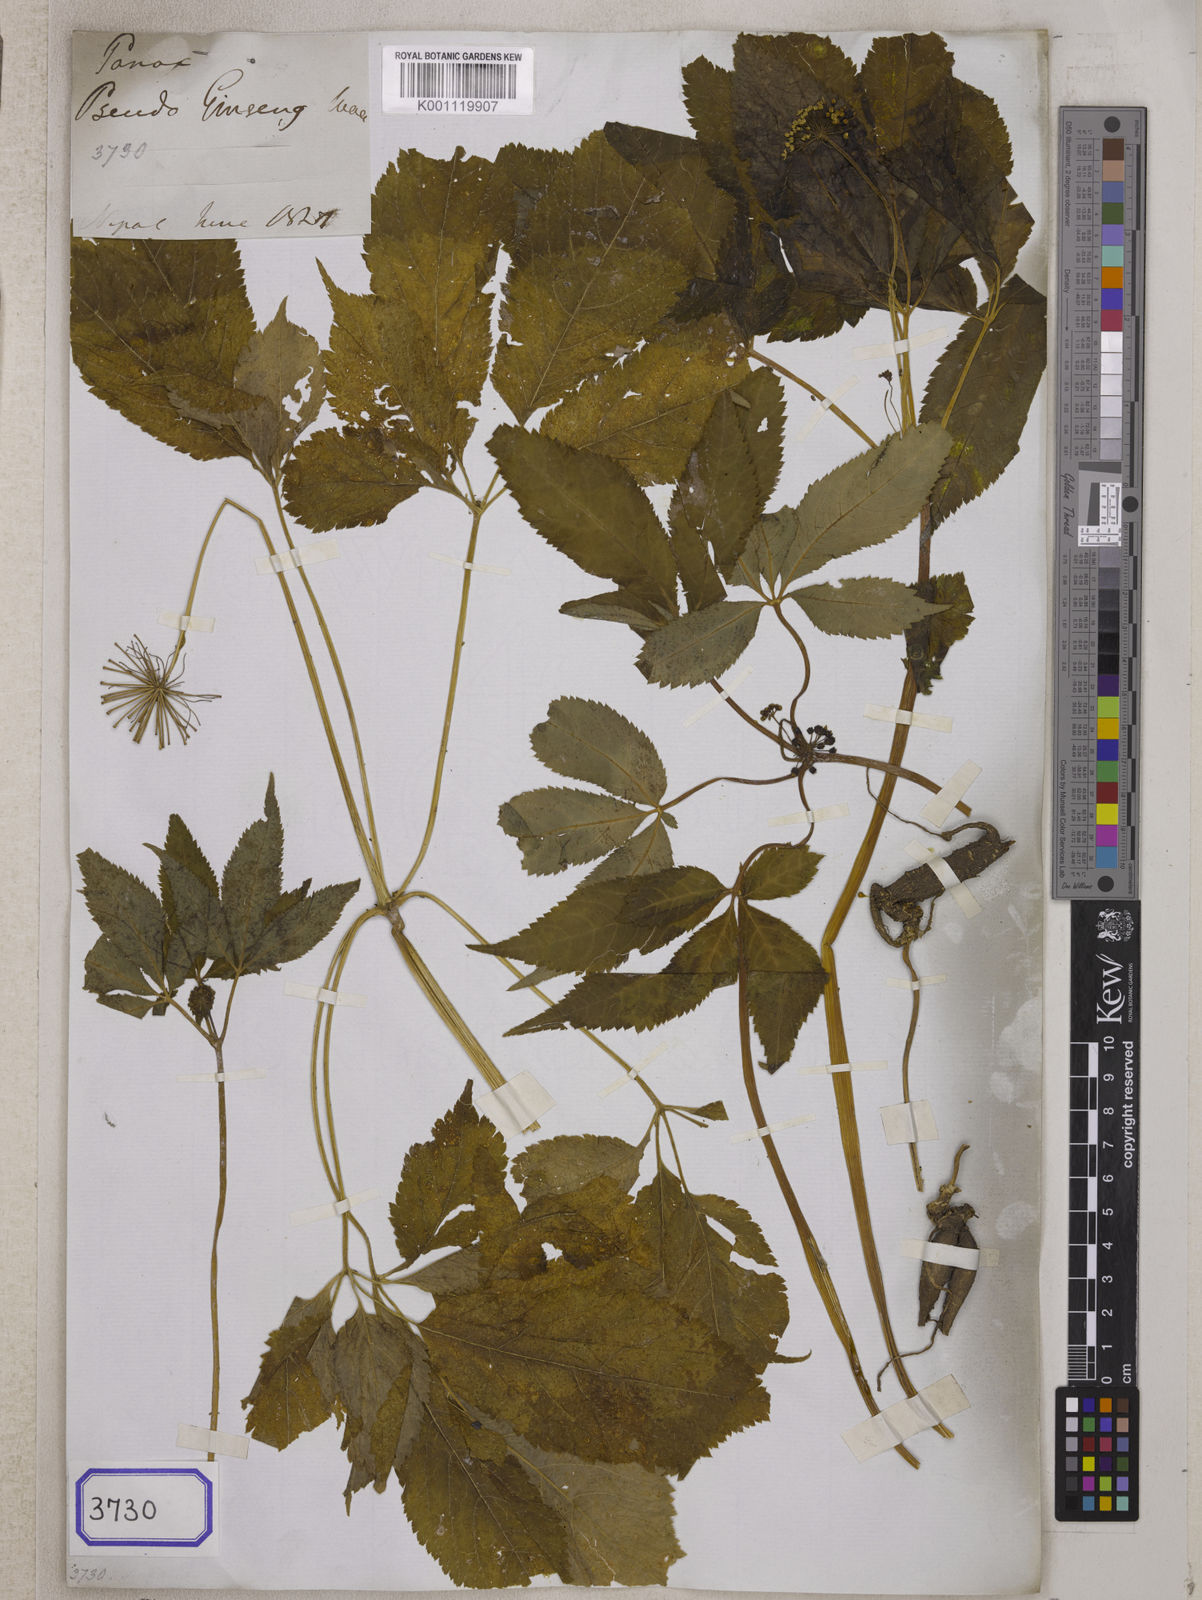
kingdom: Plantae
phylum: Tracheophyta
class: Magnoliopsida
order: Apiales
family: Araliaceae
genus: Panax
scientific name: Panax pseudoginseng
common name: Pseudoginseng
